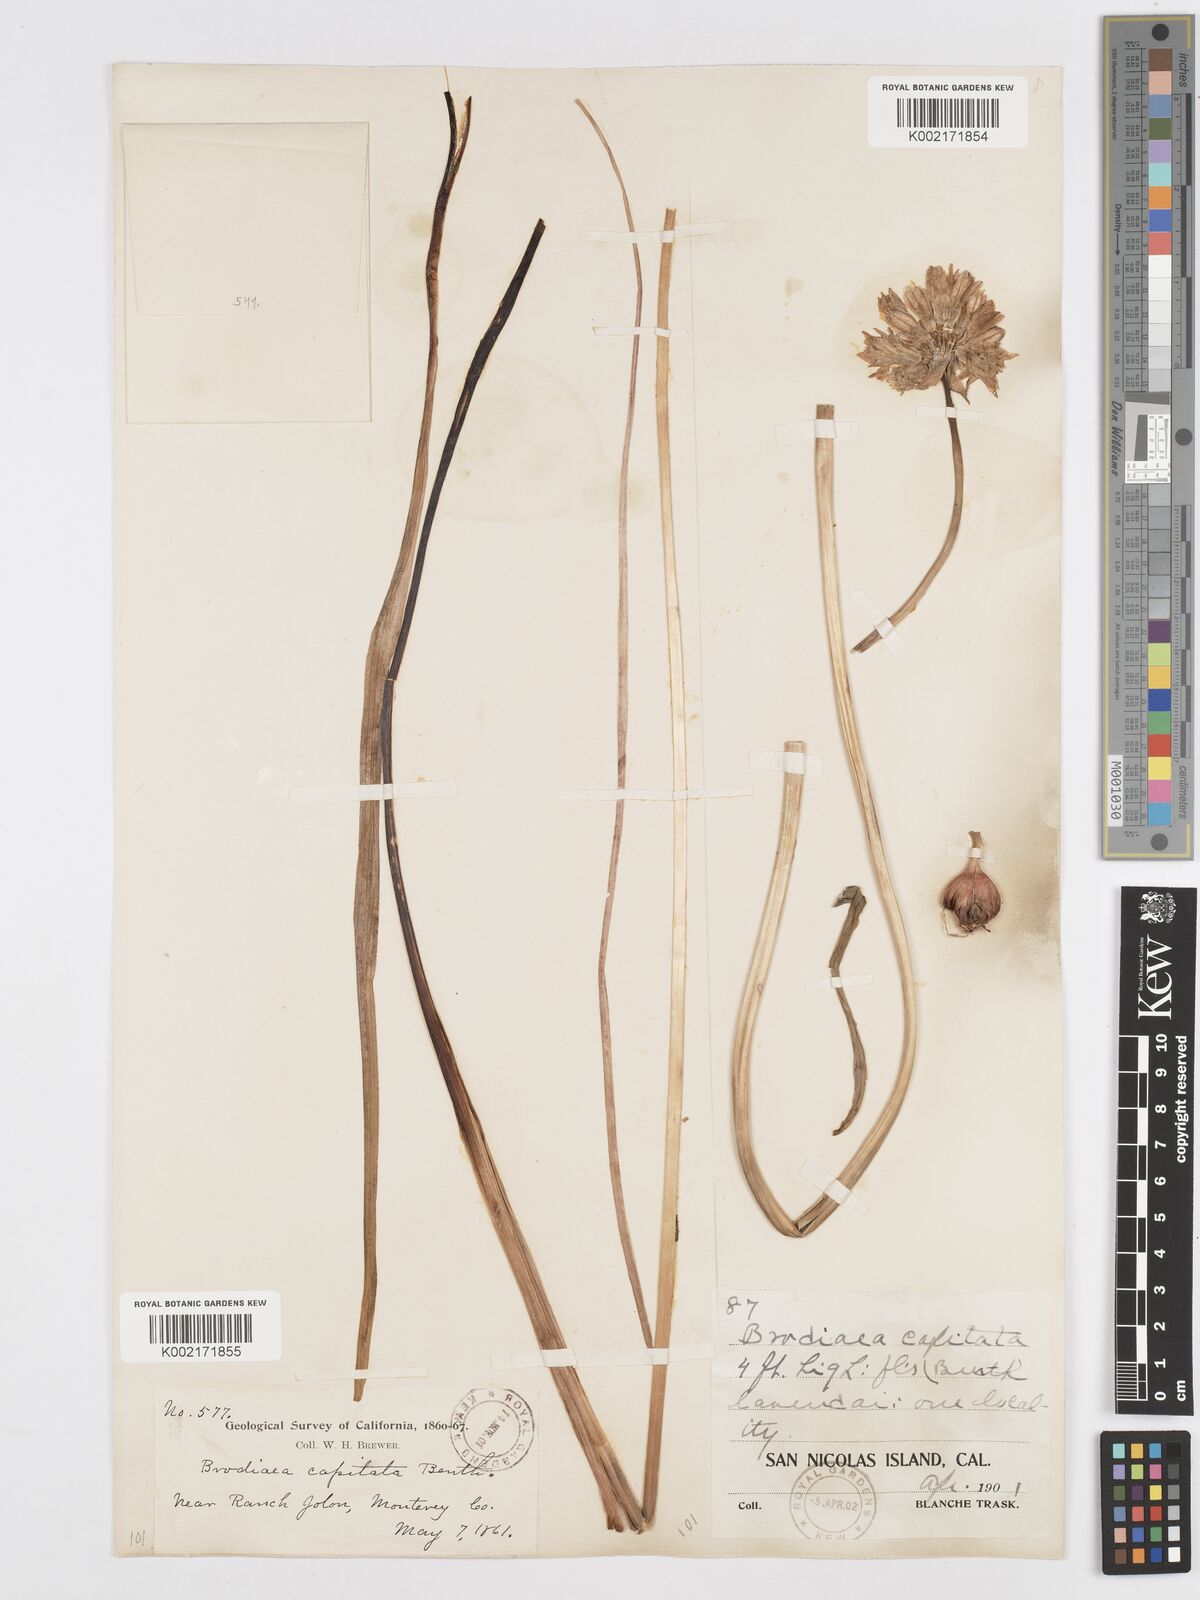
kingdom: Plantae
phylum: Tracheophyta
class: Liliopsida
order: Asparagales
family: Asparagaceae
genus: Dichelostemma
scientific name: Dichelostemma congestum
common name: Fork-tooth ookow
